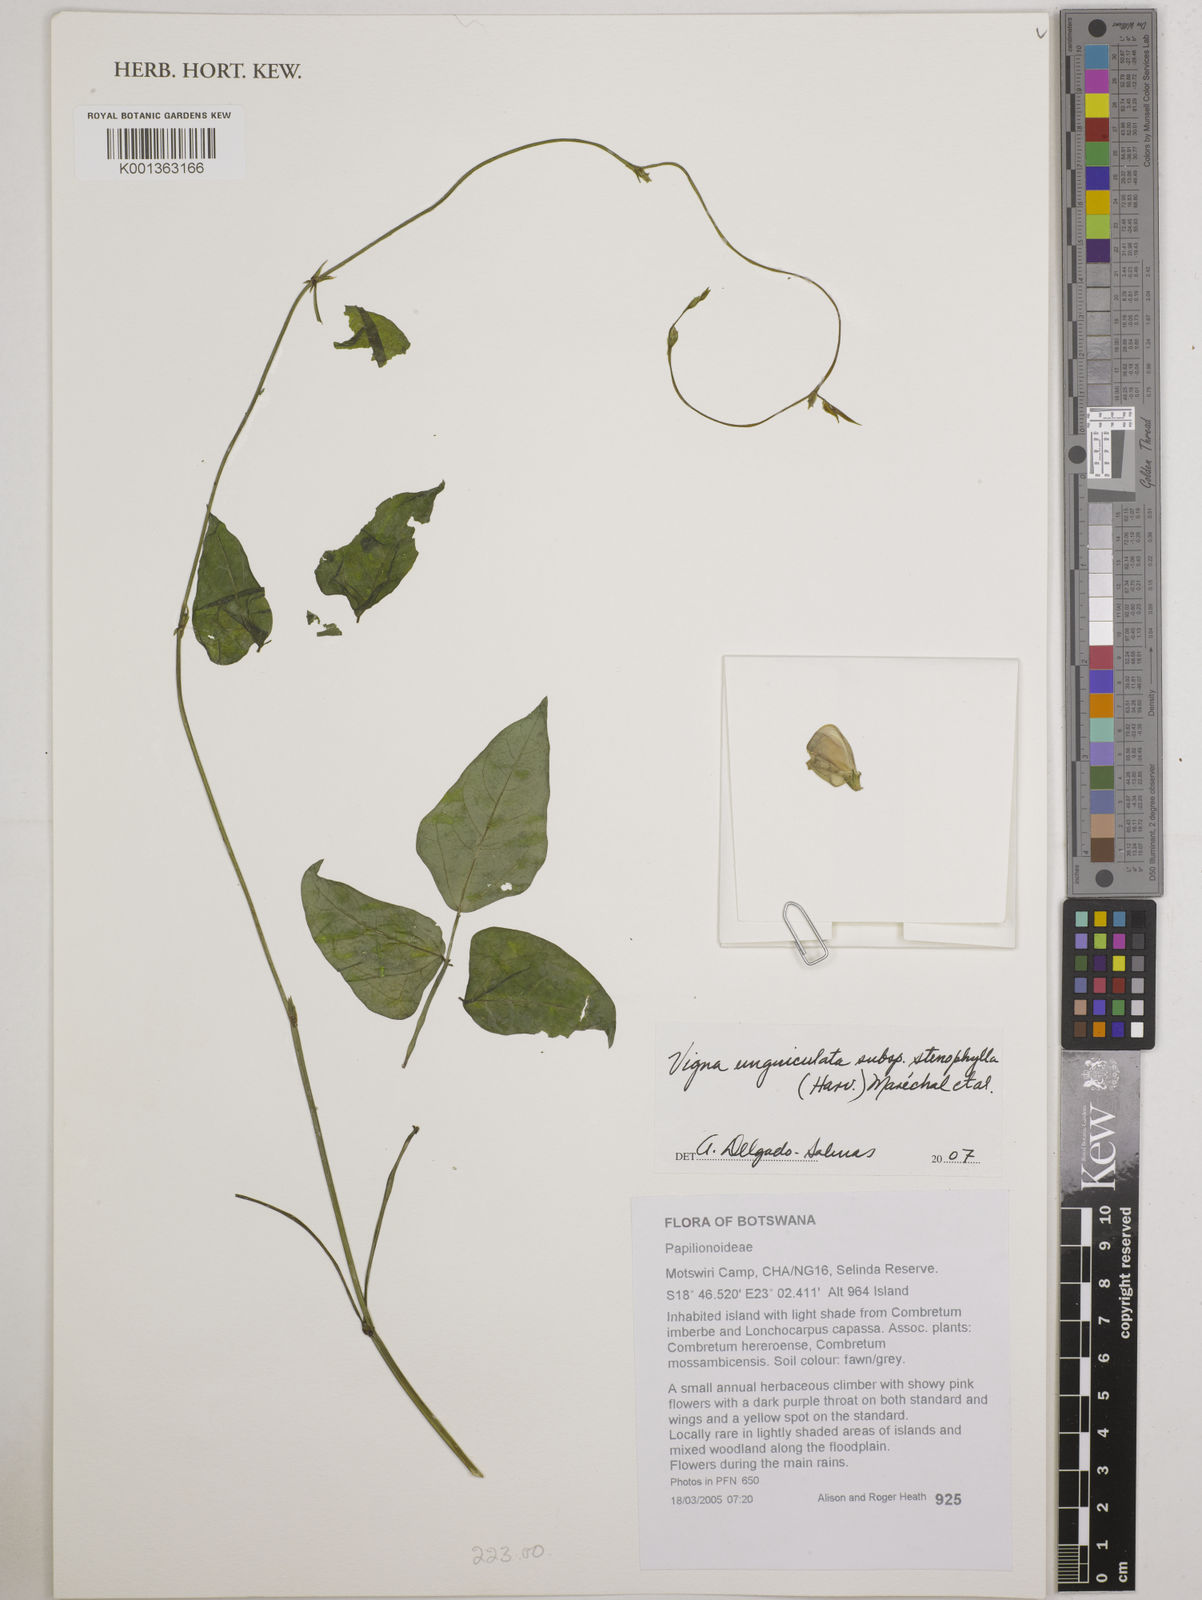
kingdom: Plantae
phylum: Tracheophyta
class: Magnoliopsida
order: Fabales
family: Fabaceae
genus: Vigna
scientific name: Vigna
